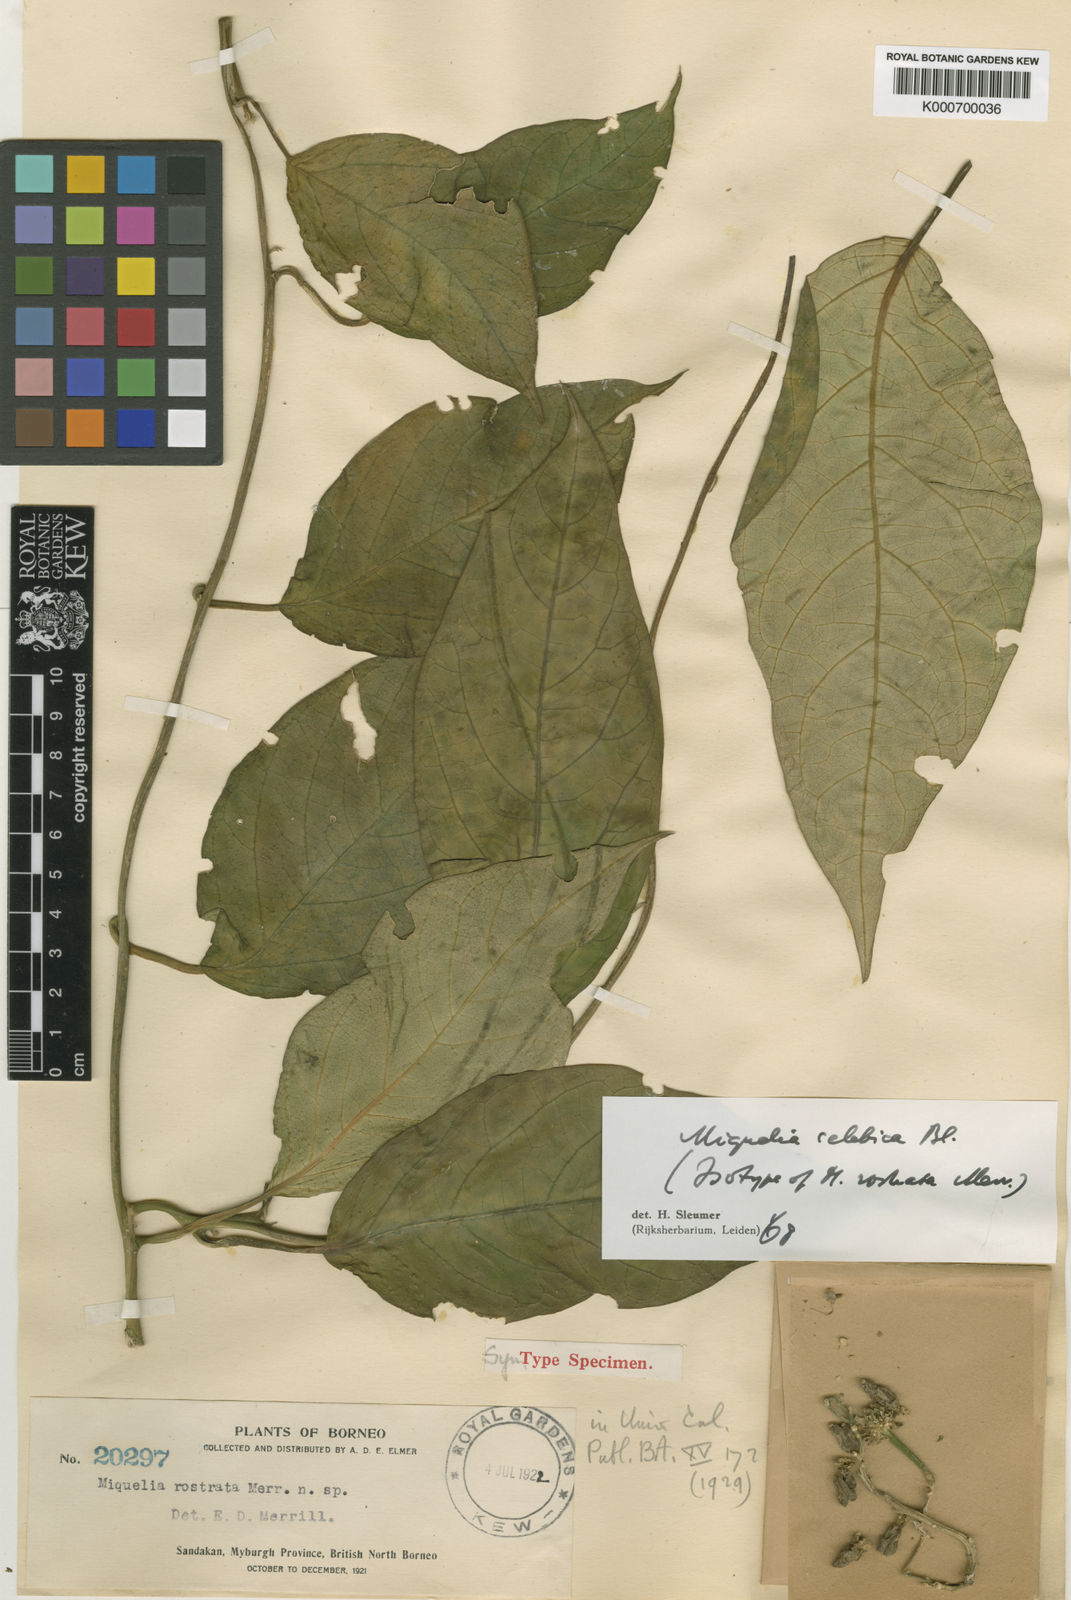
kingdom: Plantae
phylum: Tracheophyta
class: Magnoliopsida
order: Icacinales
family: Icacinaceae
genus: Miquelia
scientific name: Miquelia celebica
